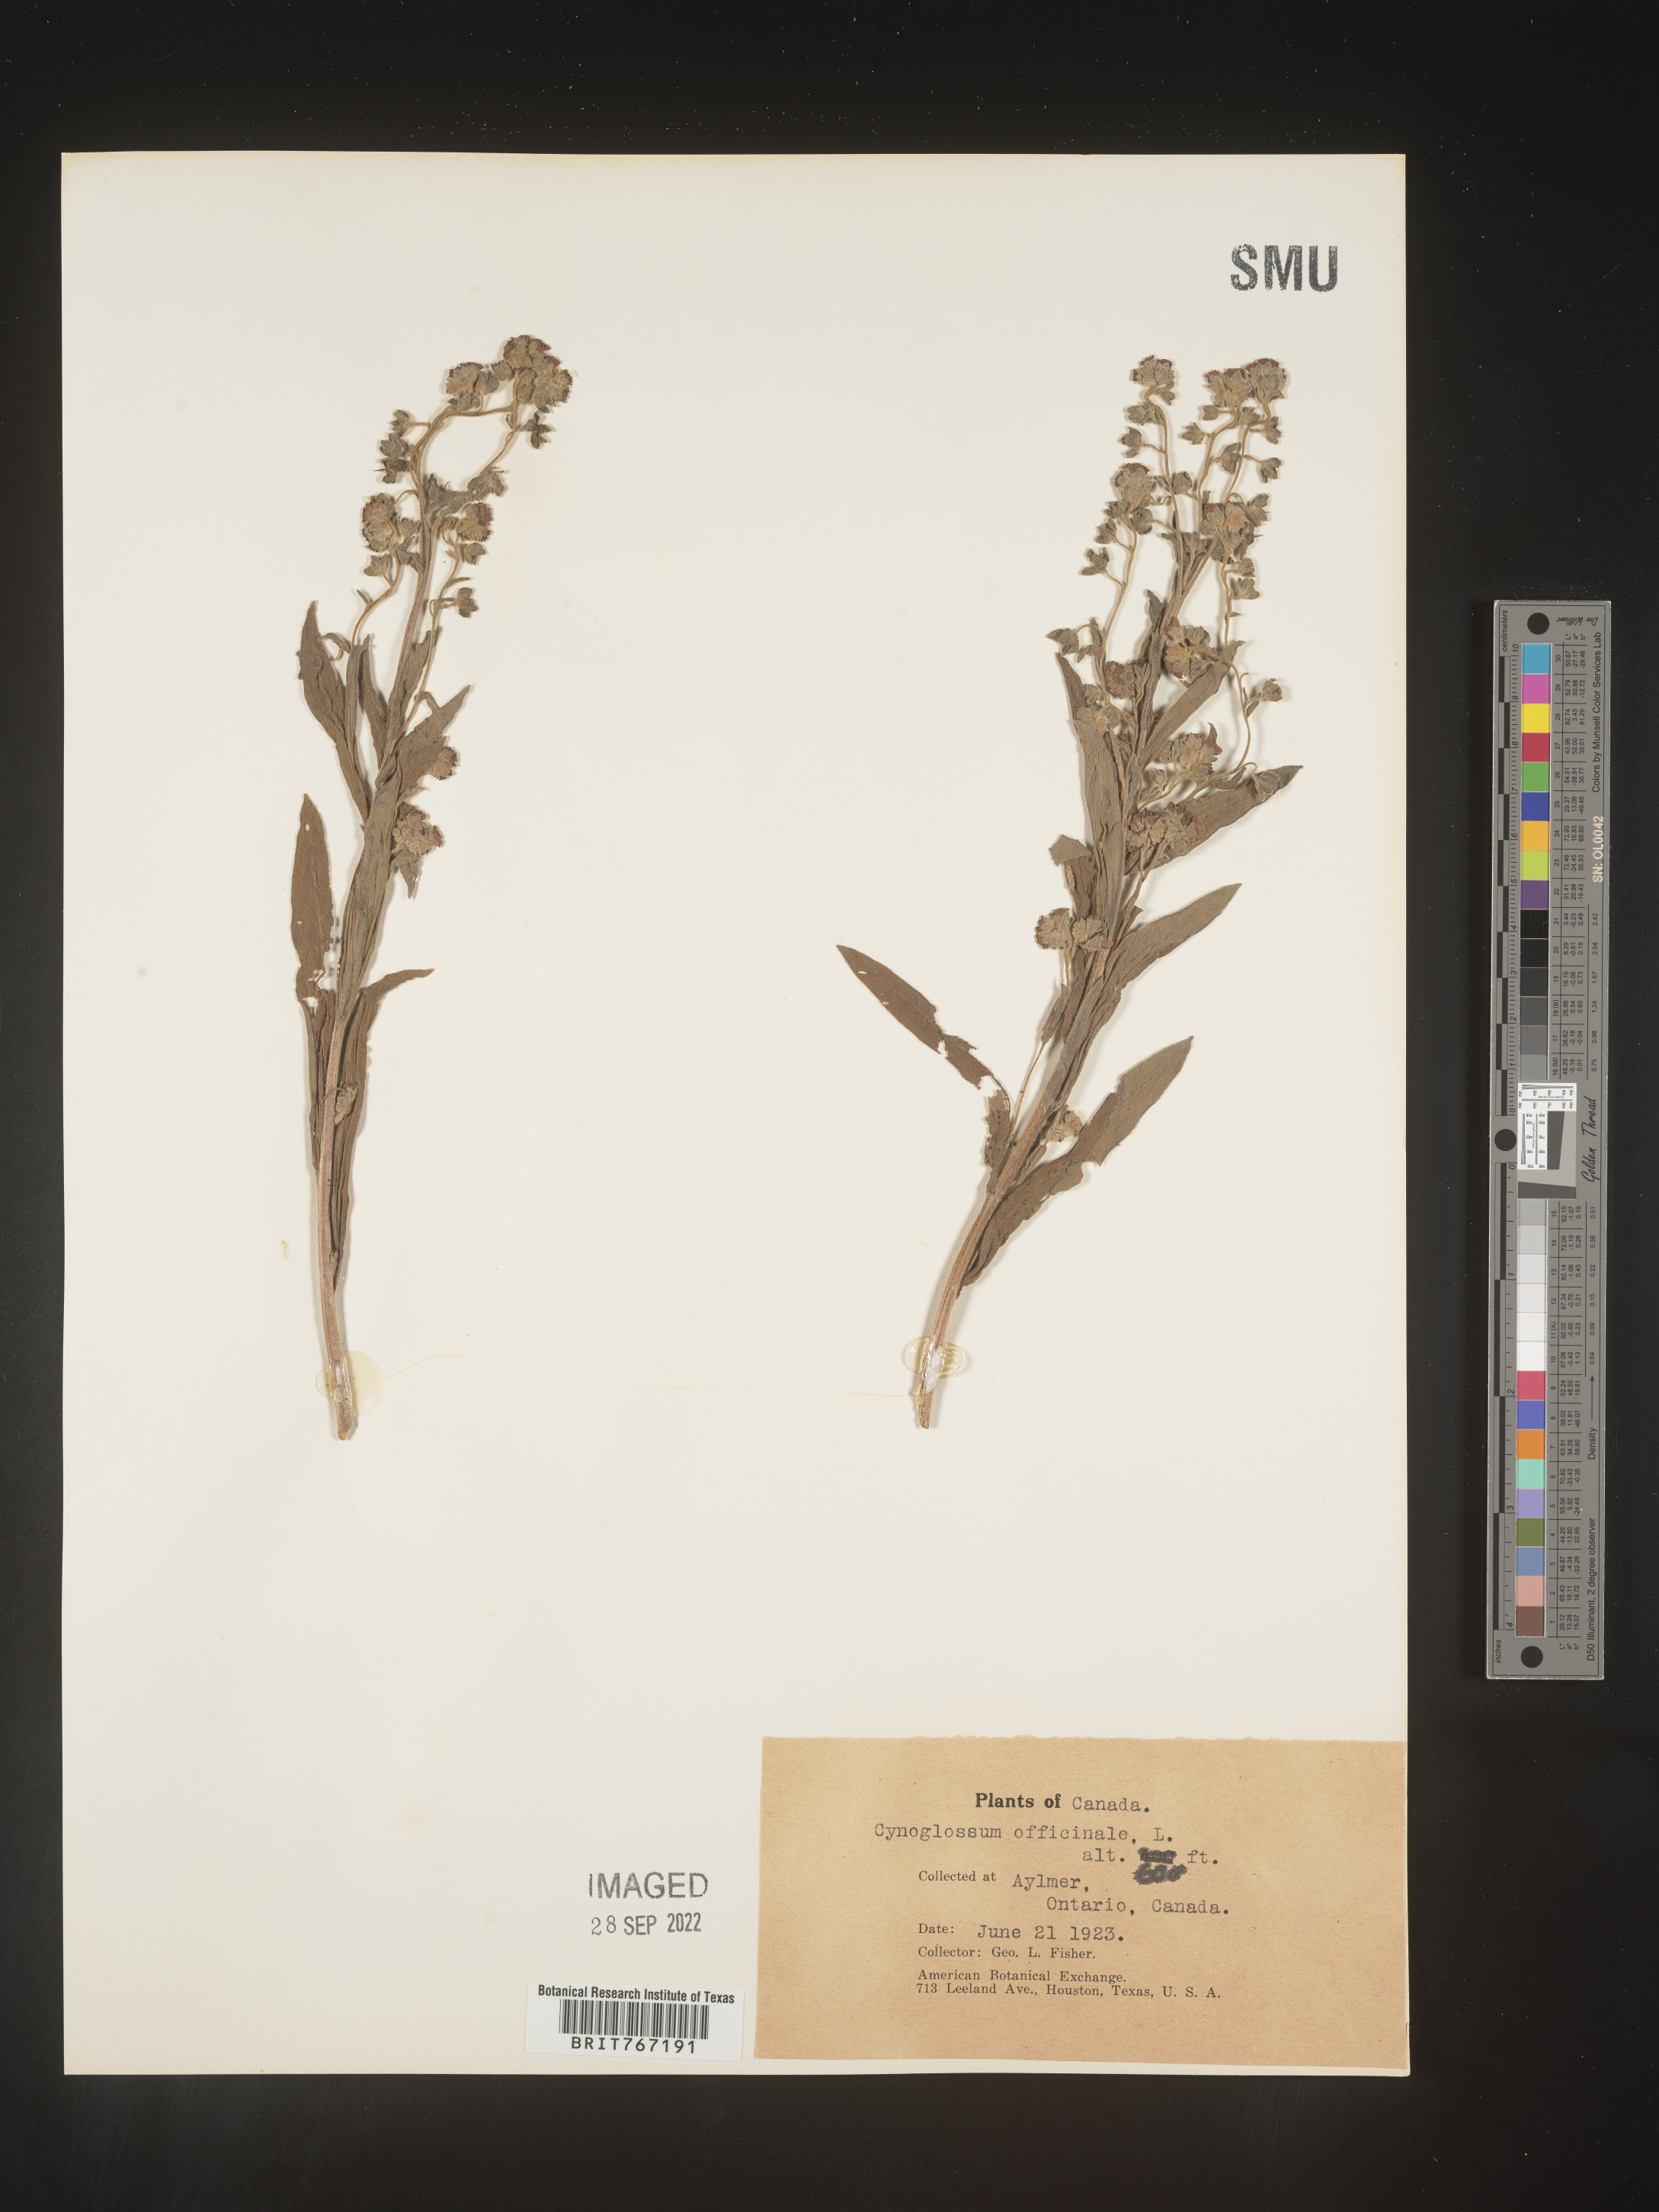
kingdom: Plantae
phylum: Tracheophyta
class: Magnoliopsida
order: Boraginales
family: Boraginaceae
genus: Cynoglossum
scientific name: Cynoglossum officinale
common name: Hound's-tongue
